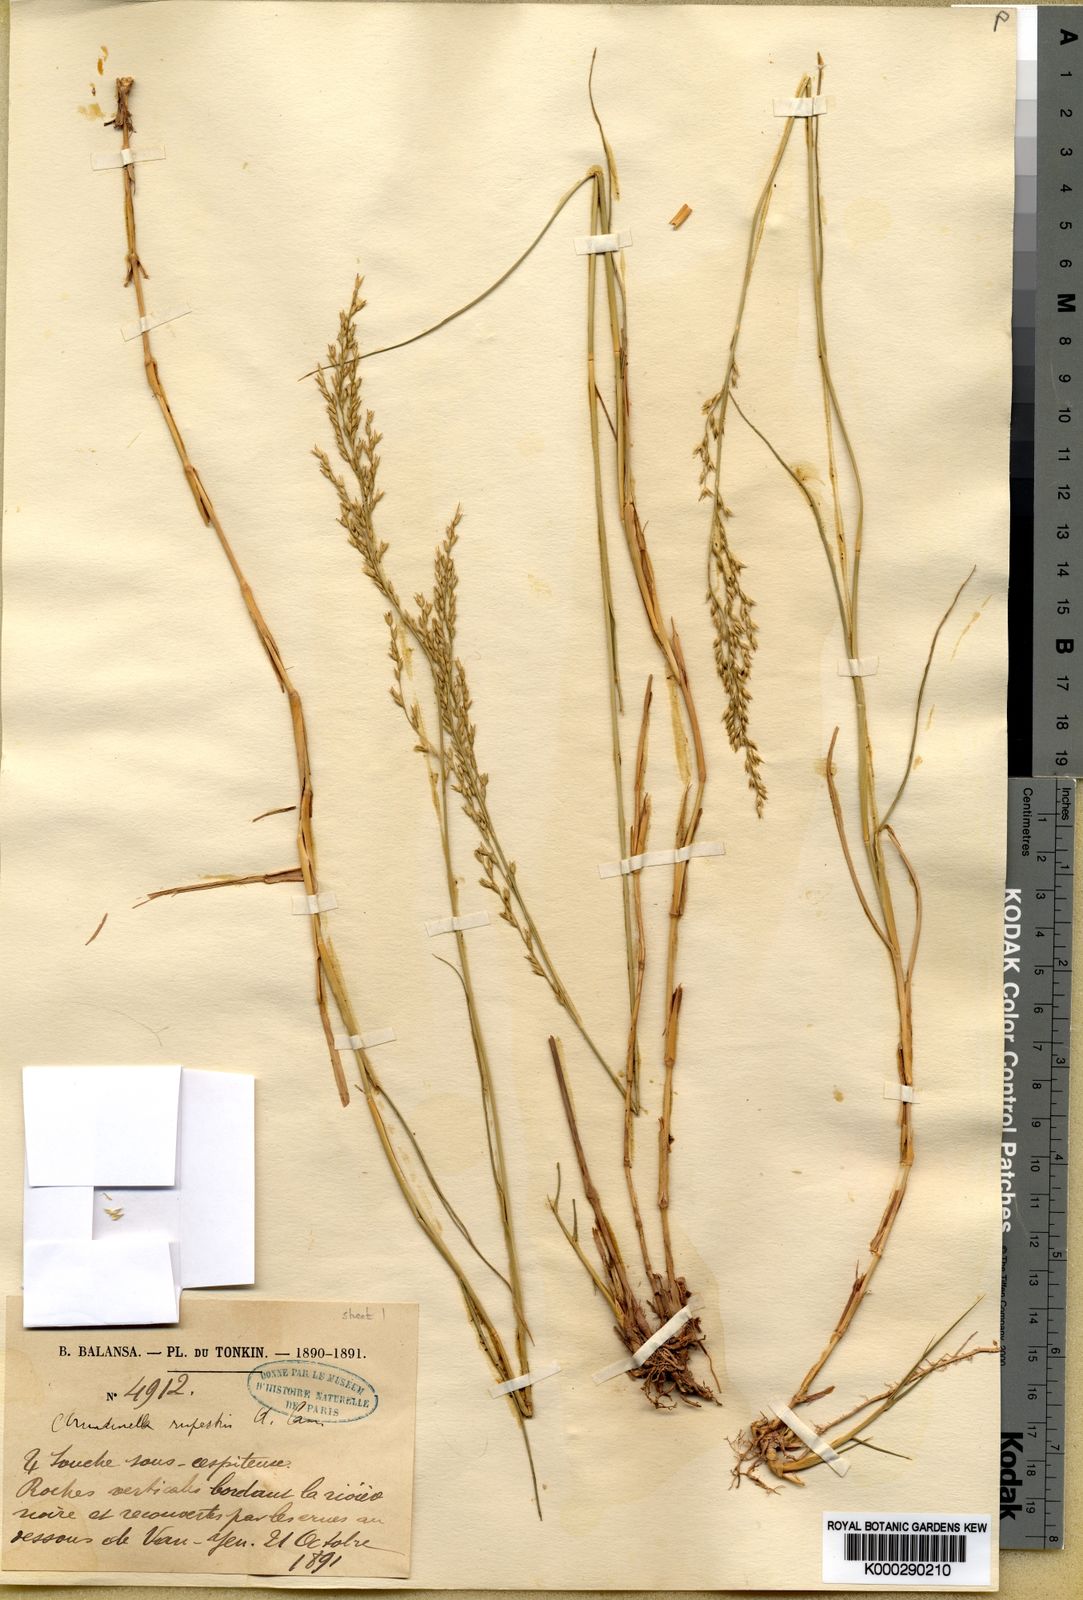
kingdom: Plantae
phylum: Tracheophyta
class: Liliopsida
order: Poales
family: Poaceae
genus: Arundinella
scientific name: Arundinella rupestris
